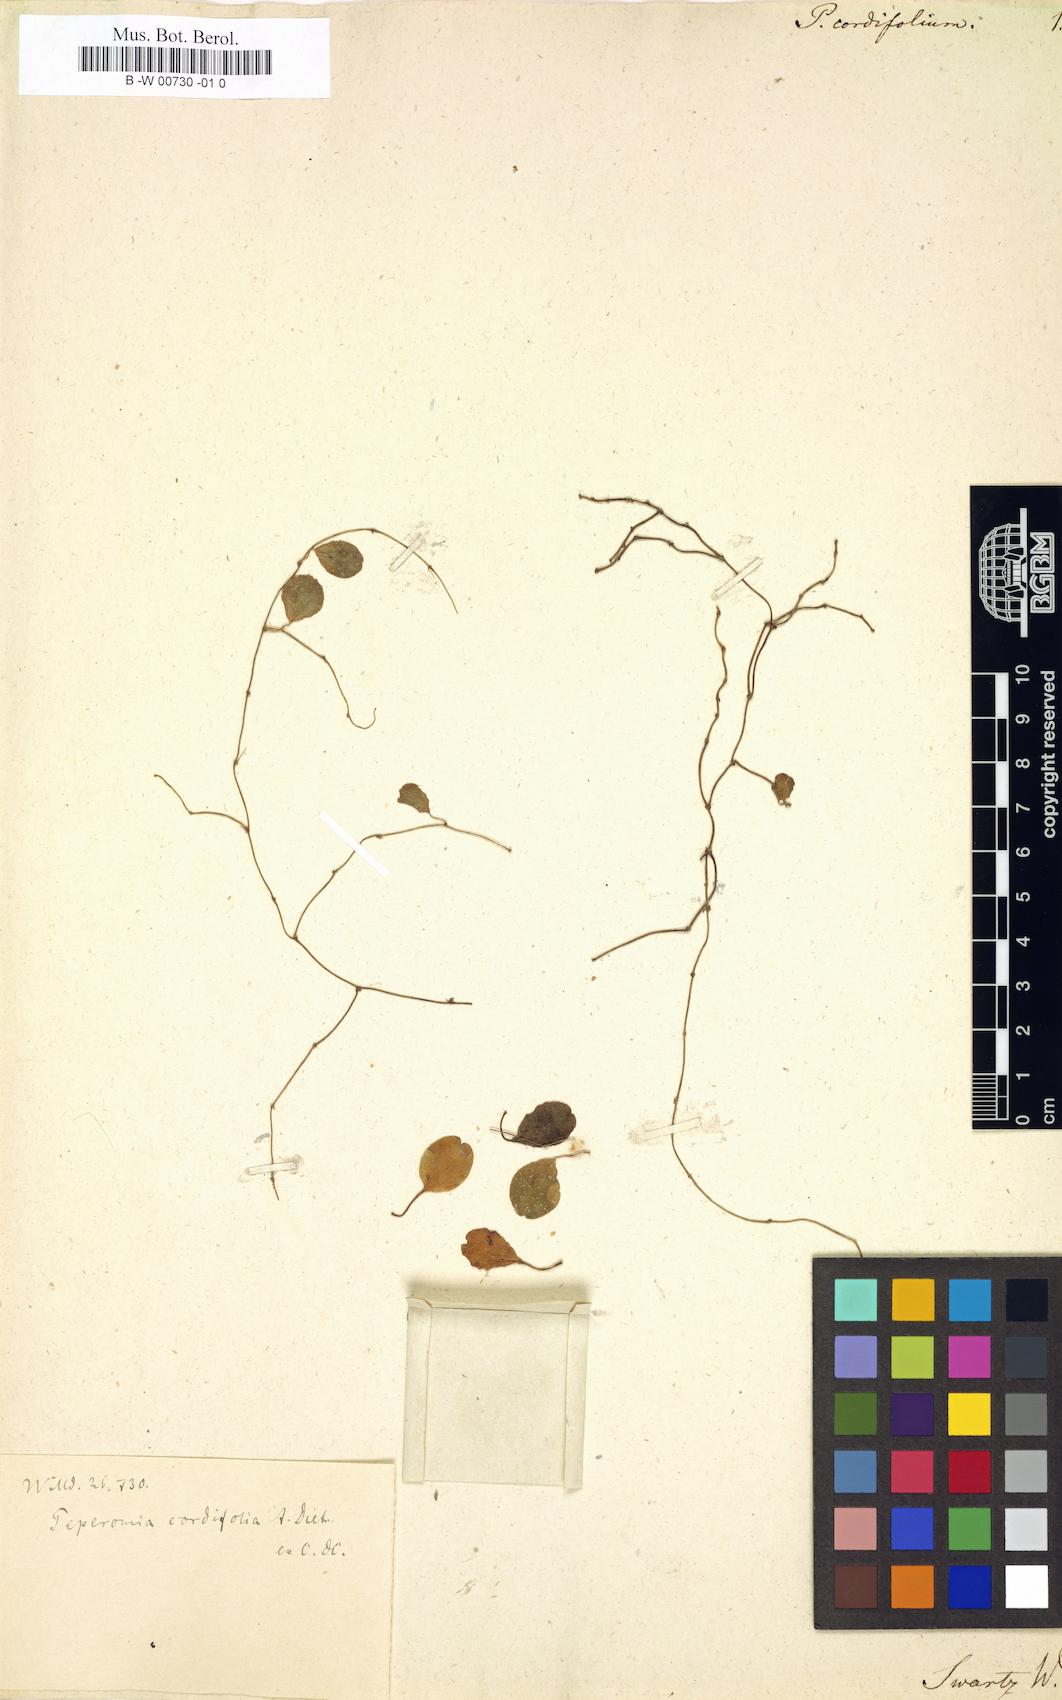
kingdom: Plantae
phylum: Tracheophyta
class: Magnoliopsida
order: Piperales
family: Piperaceae
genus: Peperomia
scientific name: Peperomia dependens
